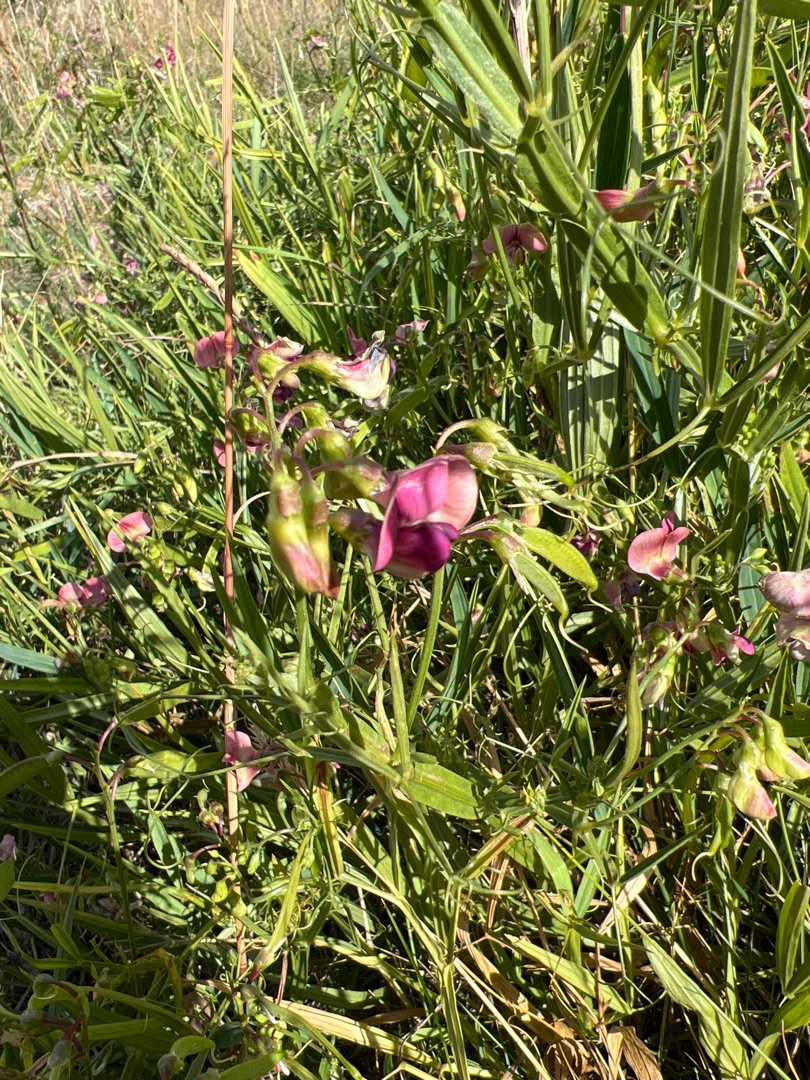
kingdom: Plantae
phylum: Tracheophyta
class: Magnoliopsida
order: Fabales
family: Fabaceae
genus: Lathyrus
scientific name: Lathyrus sylvestris
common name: Skov-fladbælg
